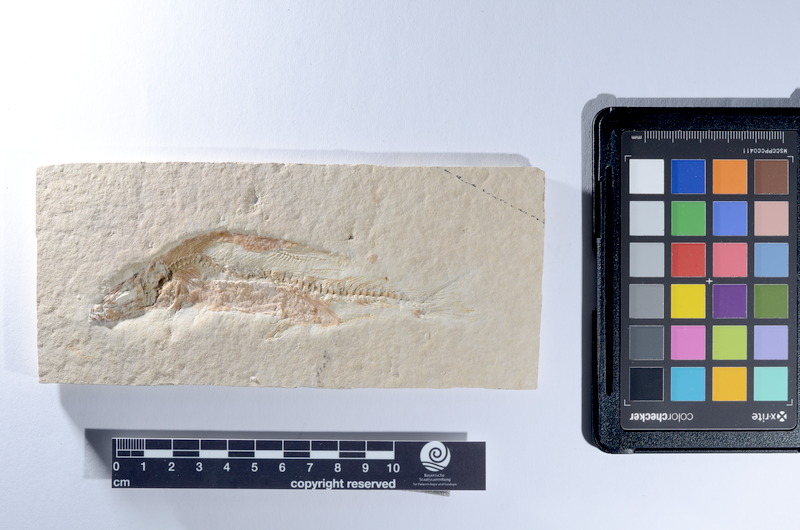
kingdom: Animalia
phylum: Chordata
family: Ascalaboidae
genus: Tharsis
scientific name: Tharsis dubius
